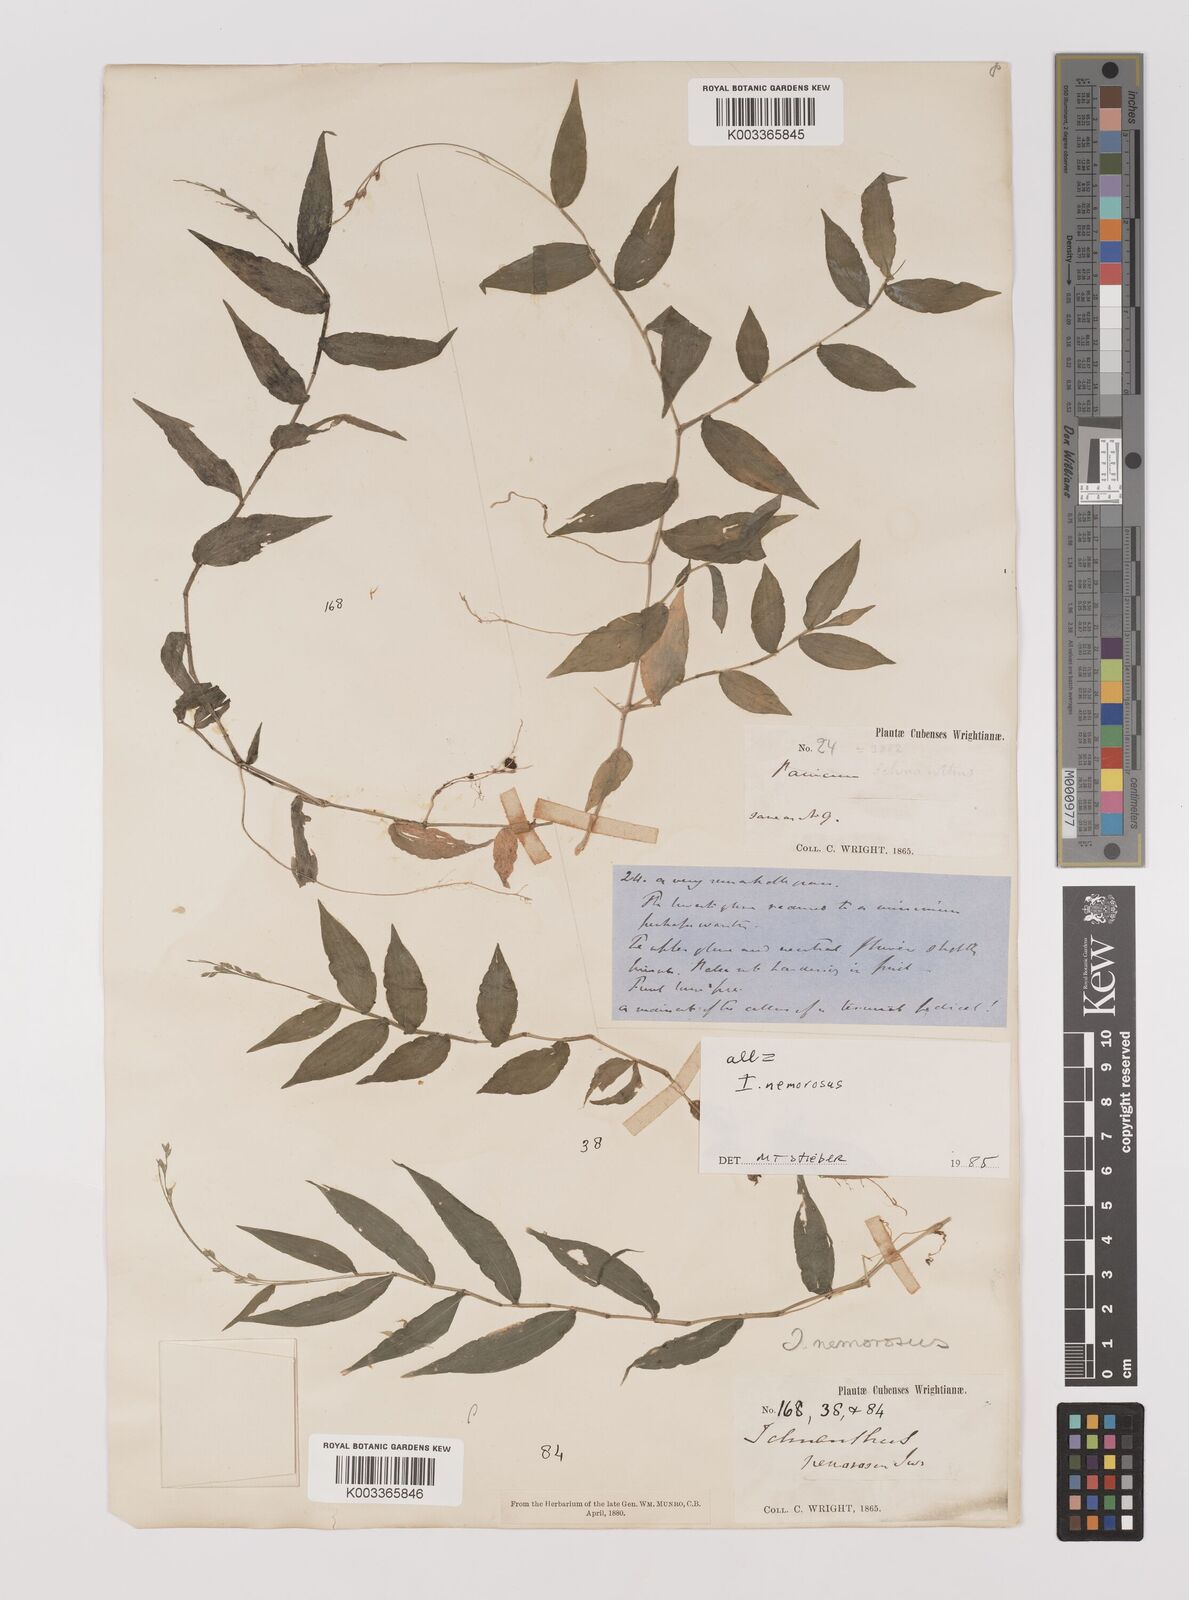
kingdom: Plantae
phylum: Tracheophyta
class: Liliopsida
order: Poales
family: Poaceae
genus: Ichnanthus
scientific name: Ichnanthus nemorosus
